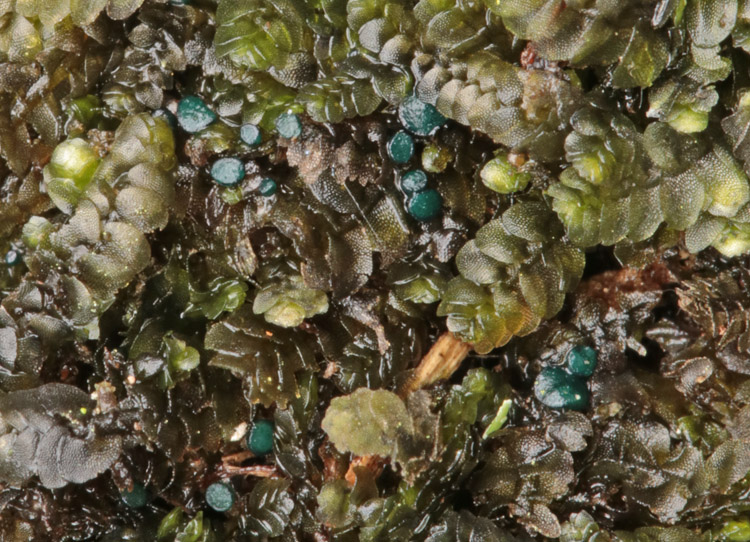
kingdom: Fungi
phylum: Ascomycota
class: Leotiomycetes
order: Leotiales
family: Mniaeciaceae
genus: Mniaecia
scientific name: Mniaecia jungermanniae
